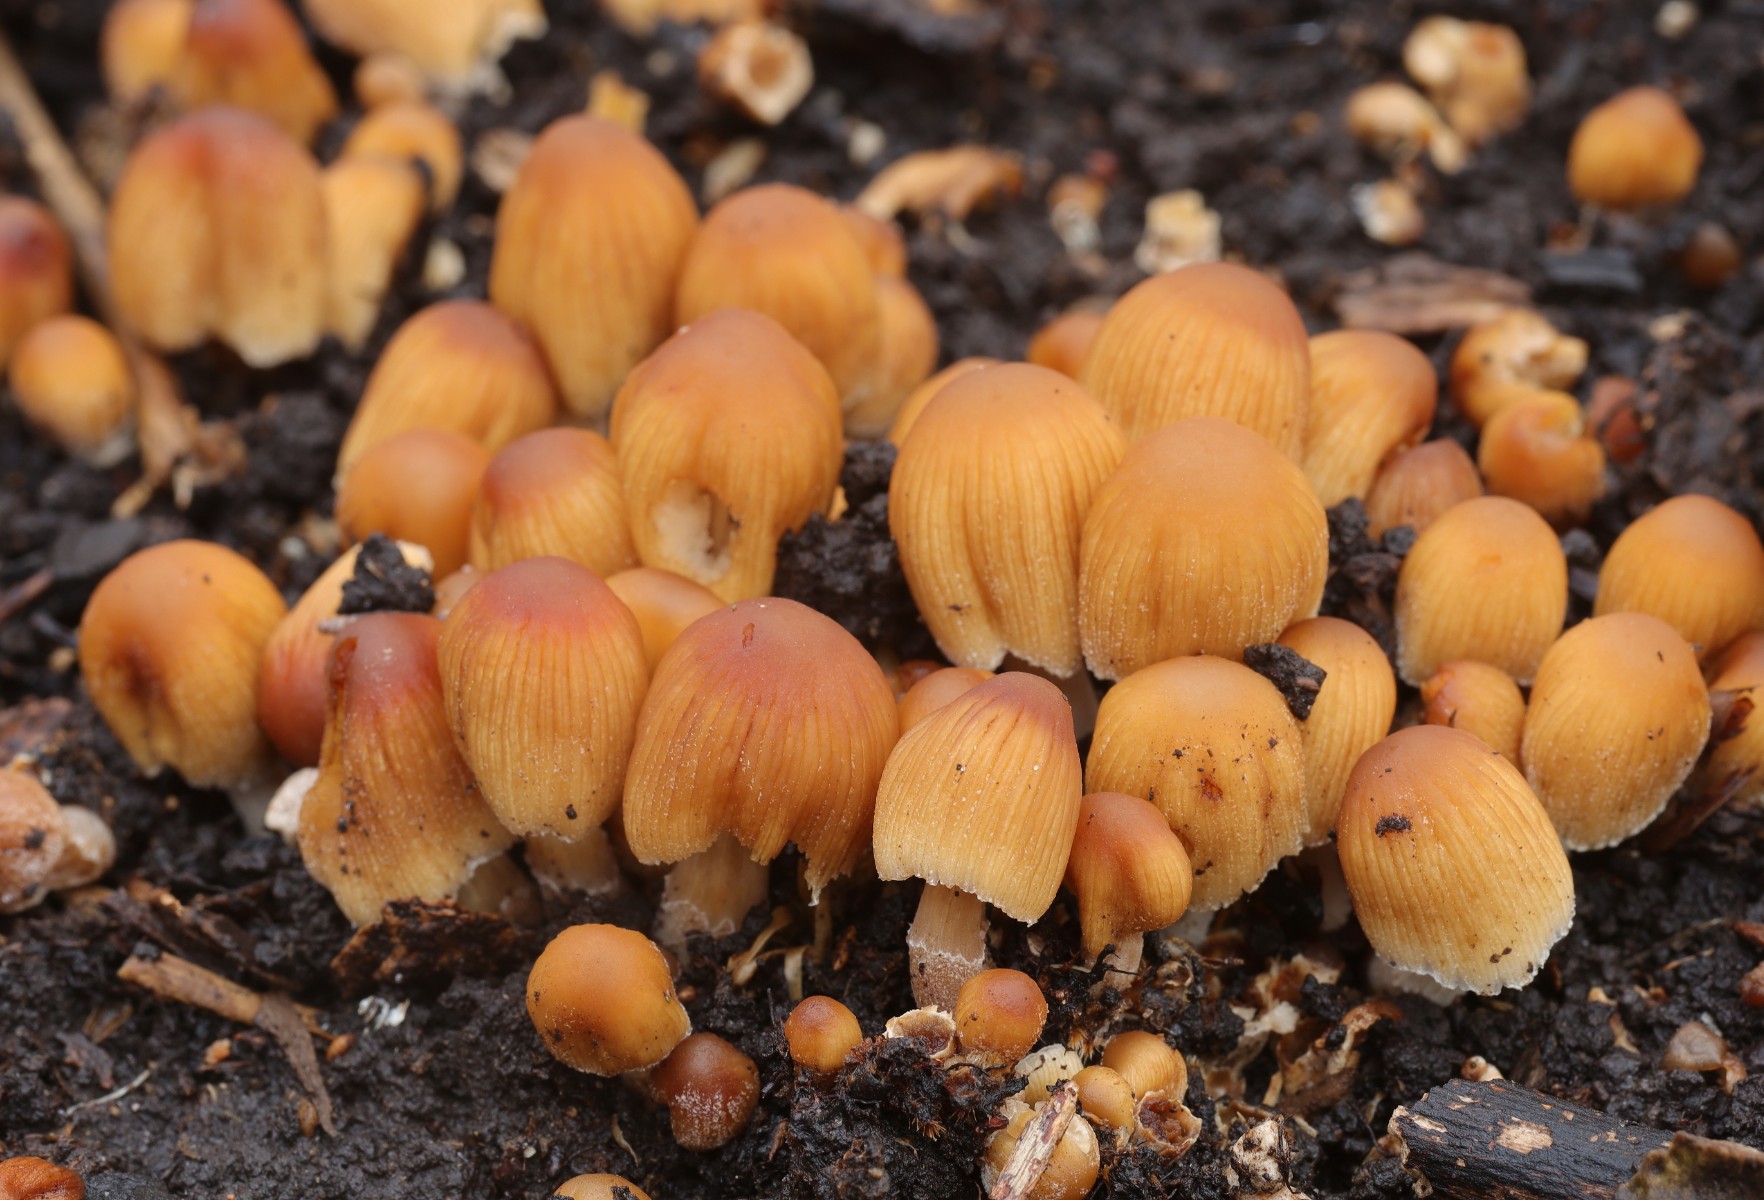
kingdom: Fungi
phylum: Basidiomycota
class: Agaricomycetes
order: Agaricales
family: Psathyrellaceae
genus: Coprinellus
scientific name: Coprinellus micaceus
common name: glimmer-blækhat
